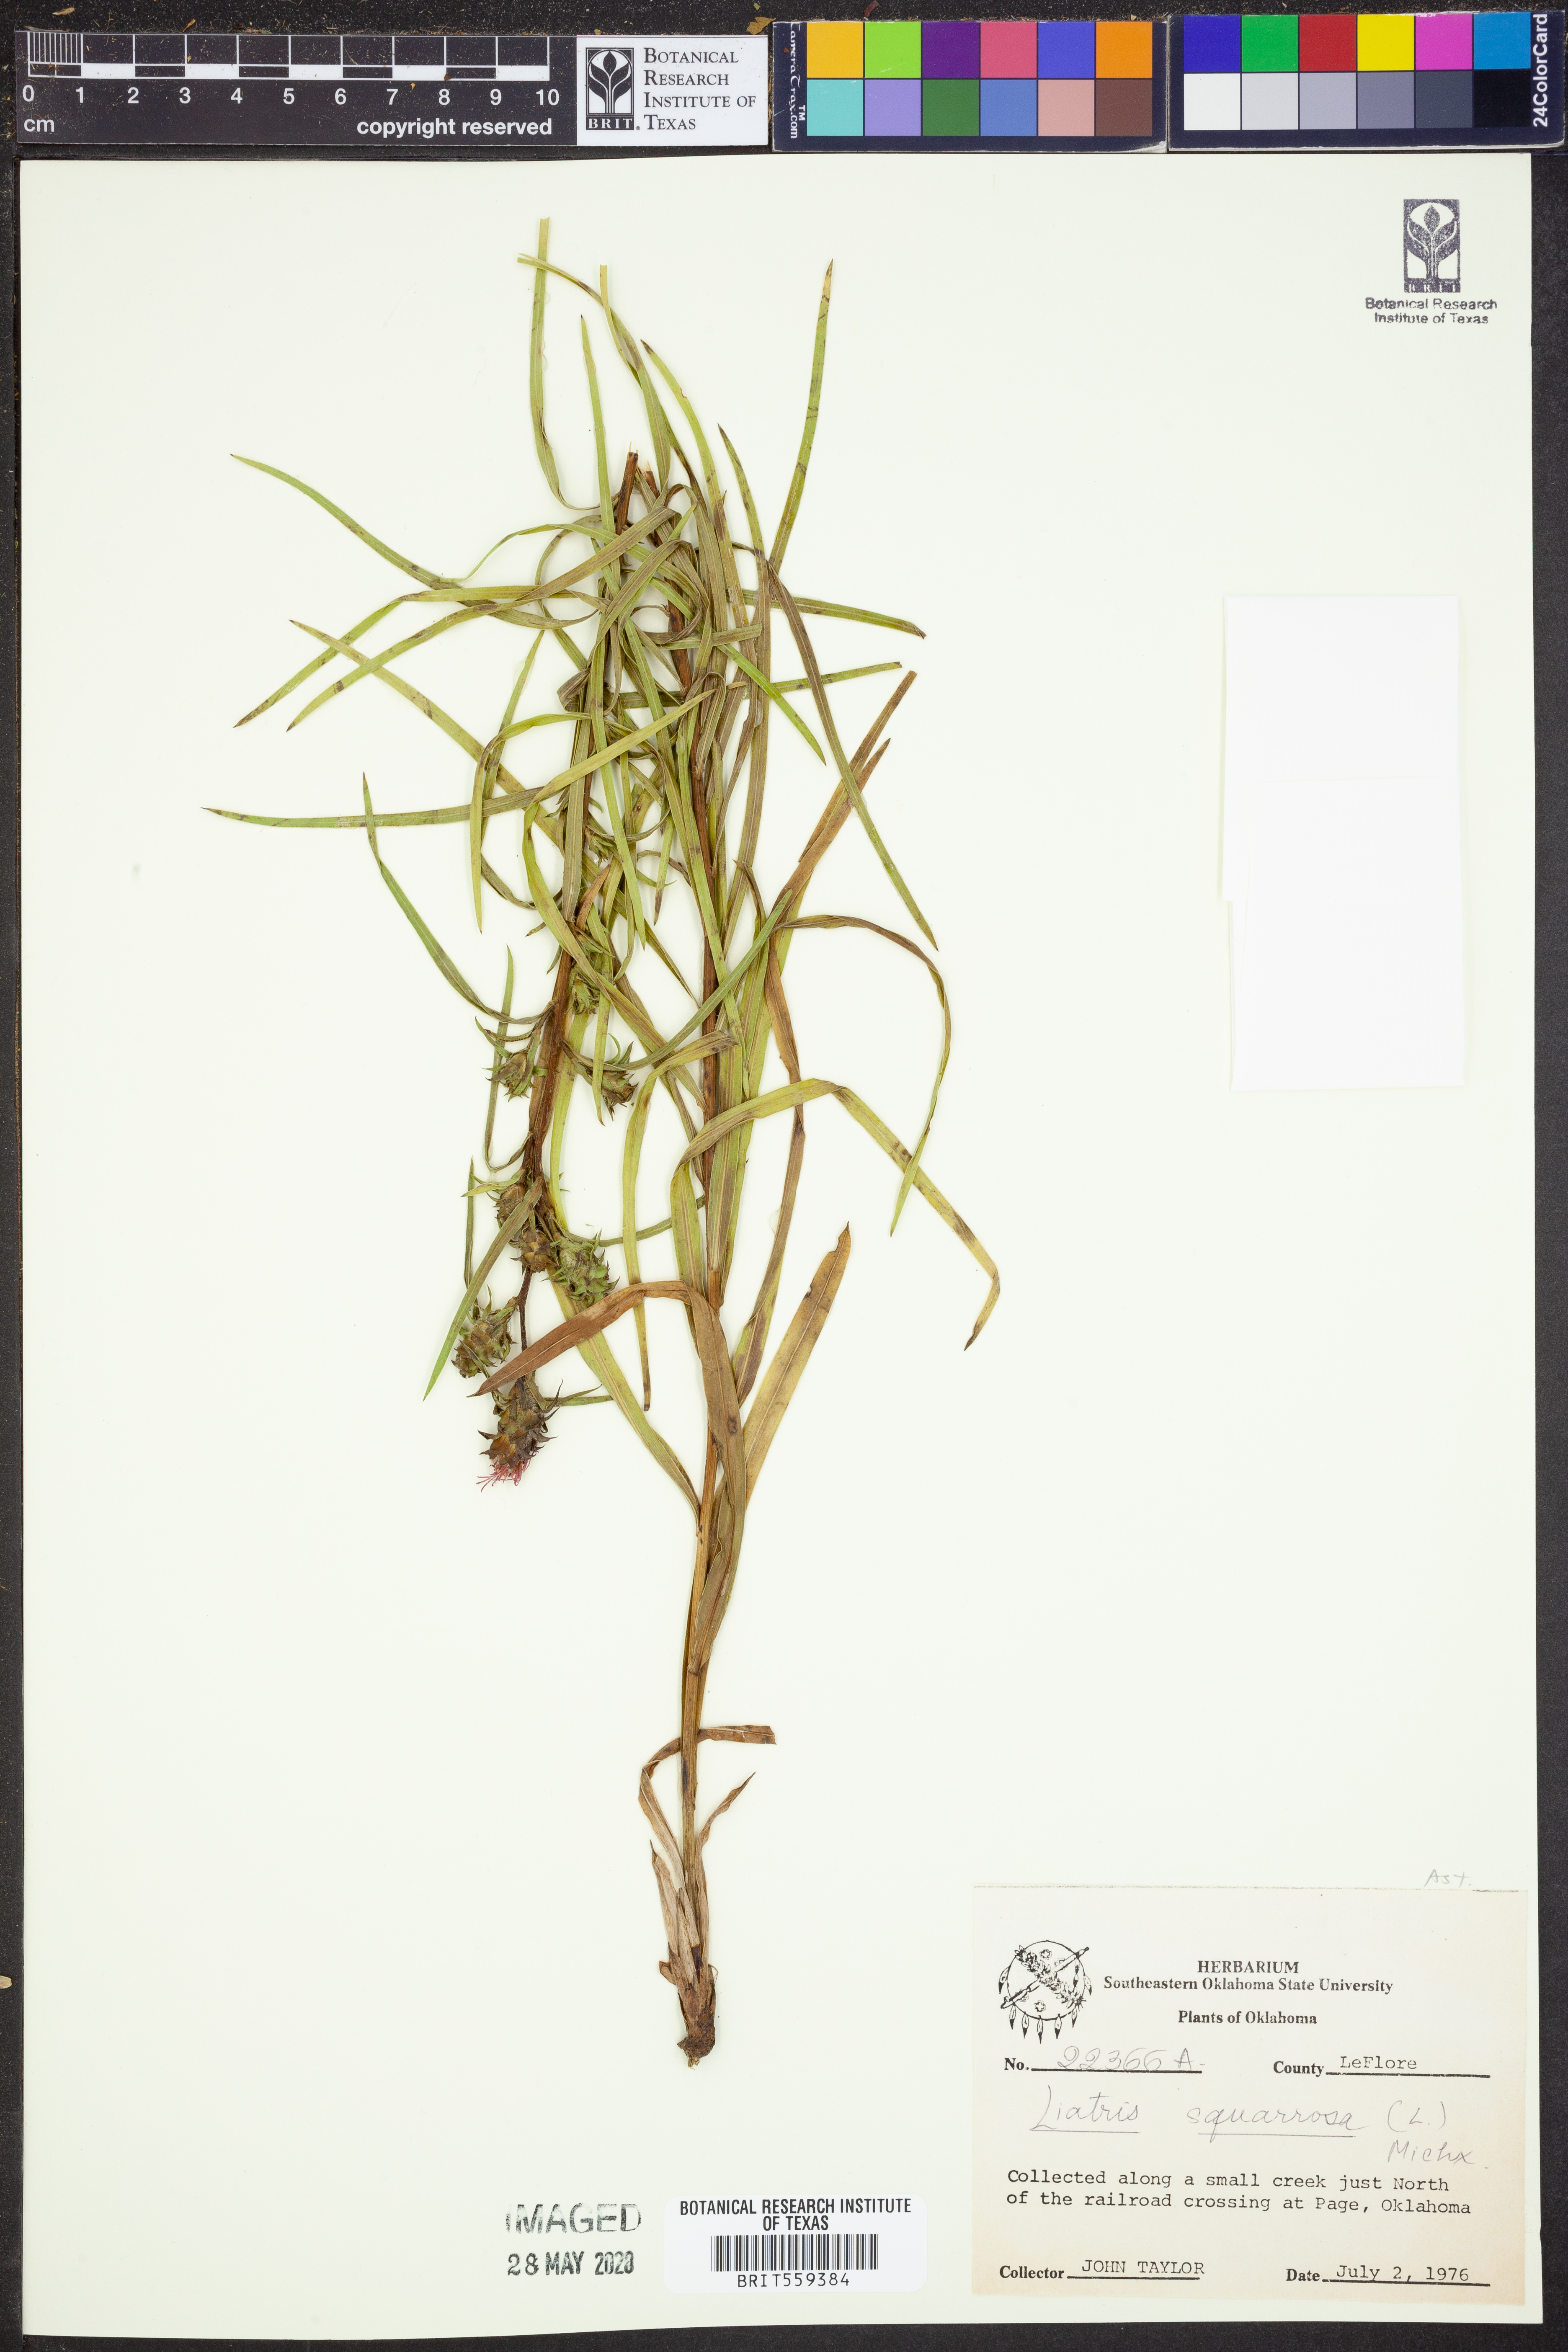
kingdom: Plantae
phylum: Tracheophyta
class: Magnoliopsida
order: Asterales
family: Asteraceae
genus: Liatris
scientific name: Liatris squarrosa
